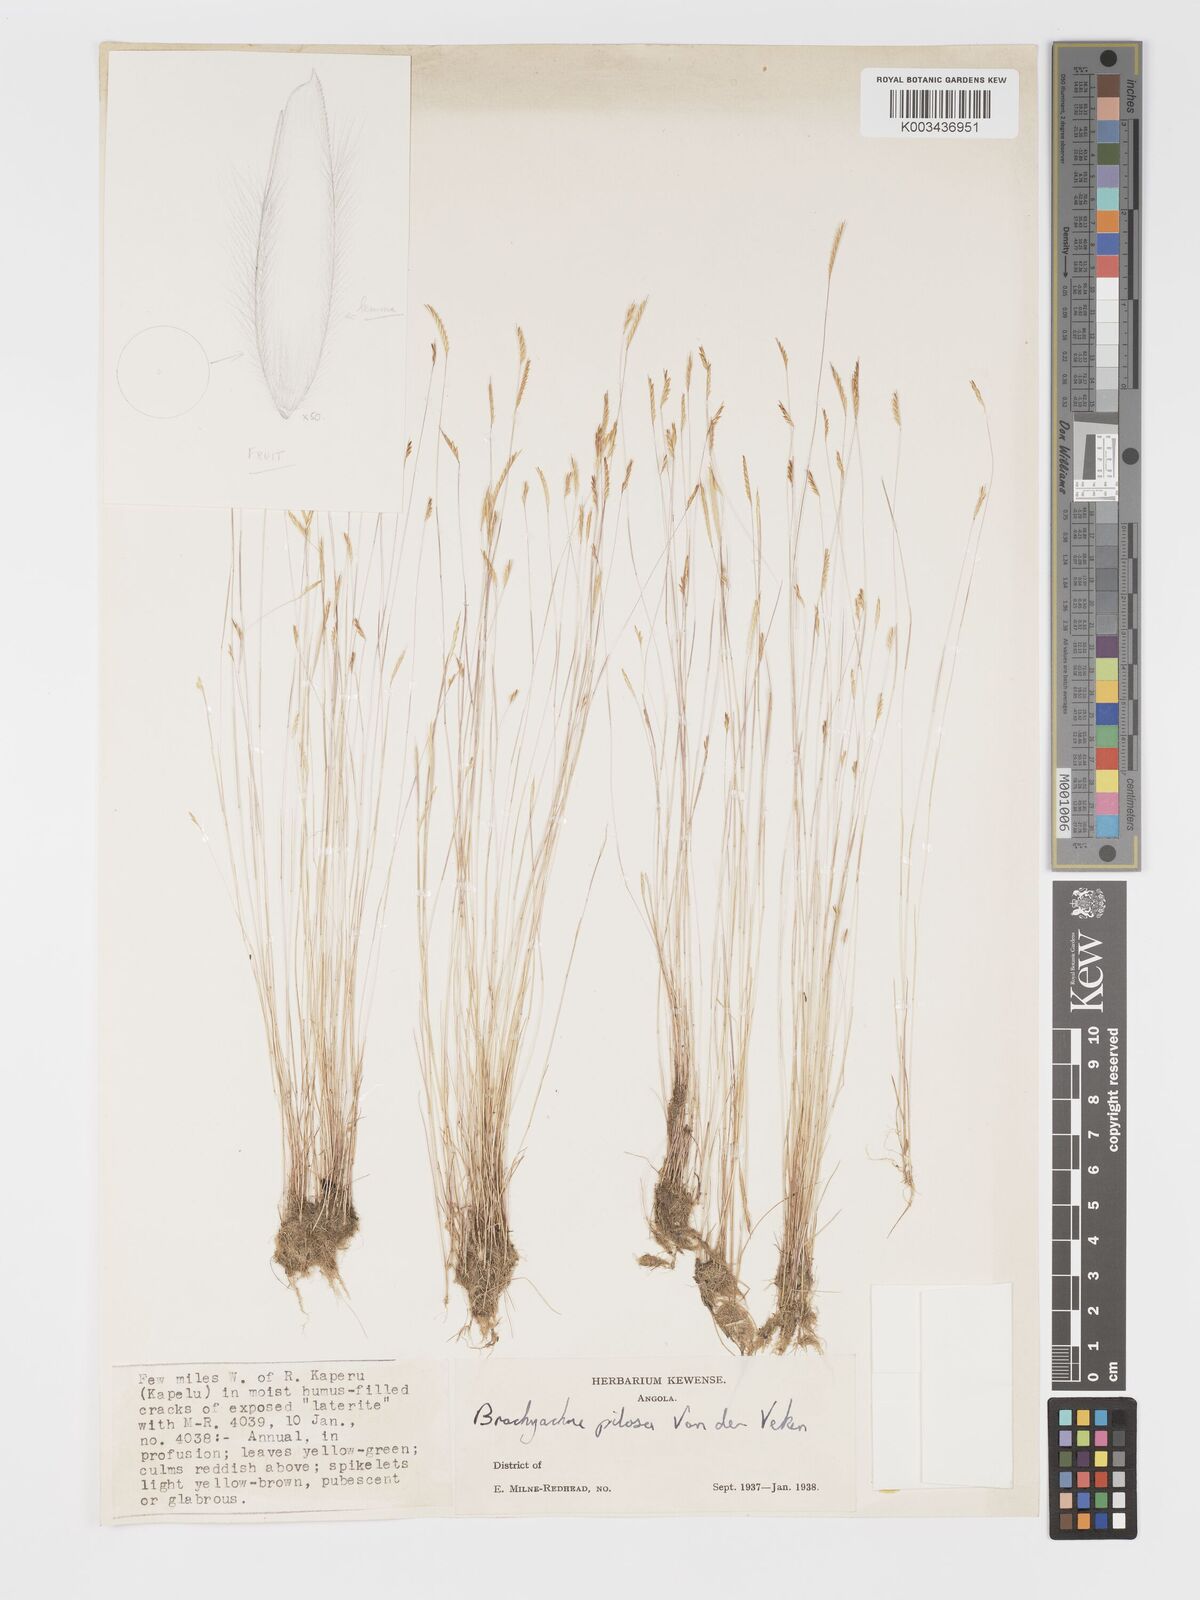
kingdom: Plantae
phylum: Tracheophyta
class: Liliopsida
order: Poales
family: Poaceae
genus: Micrachne
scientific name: Micrachne pilosa
